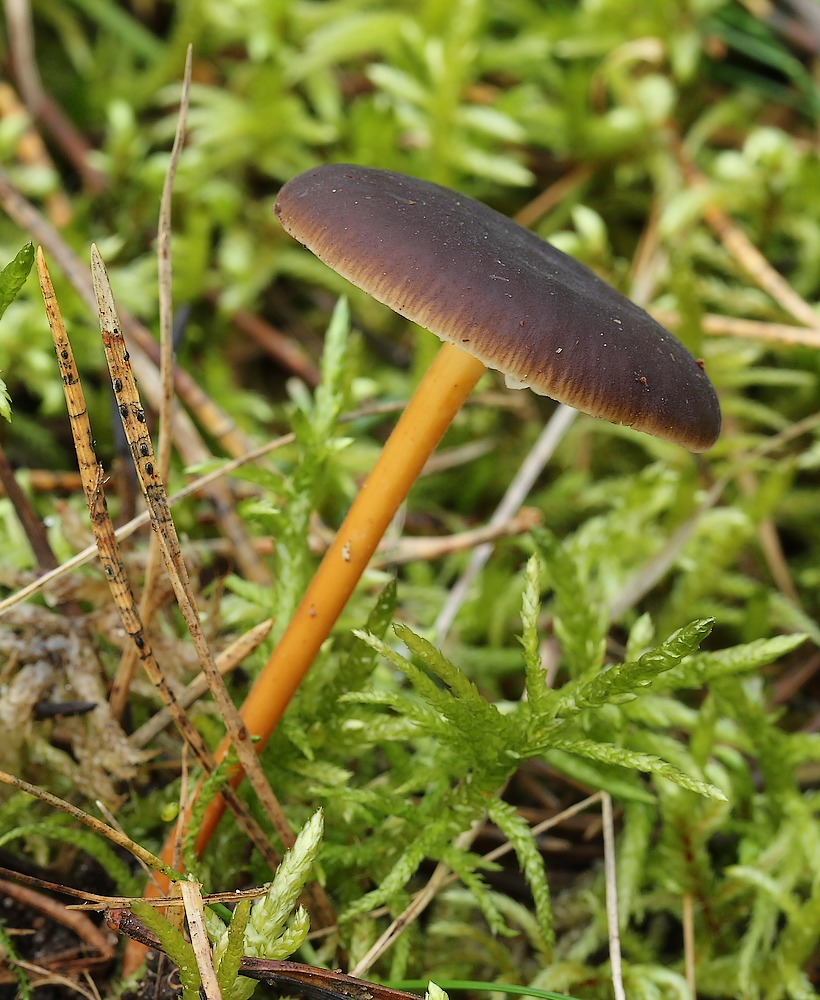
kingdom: Fungi
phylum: Basidiomycota
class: Agaricomycetes
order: Agaricales
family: Physalacriaceae
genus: Strobilurus
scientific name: Strobilurus
